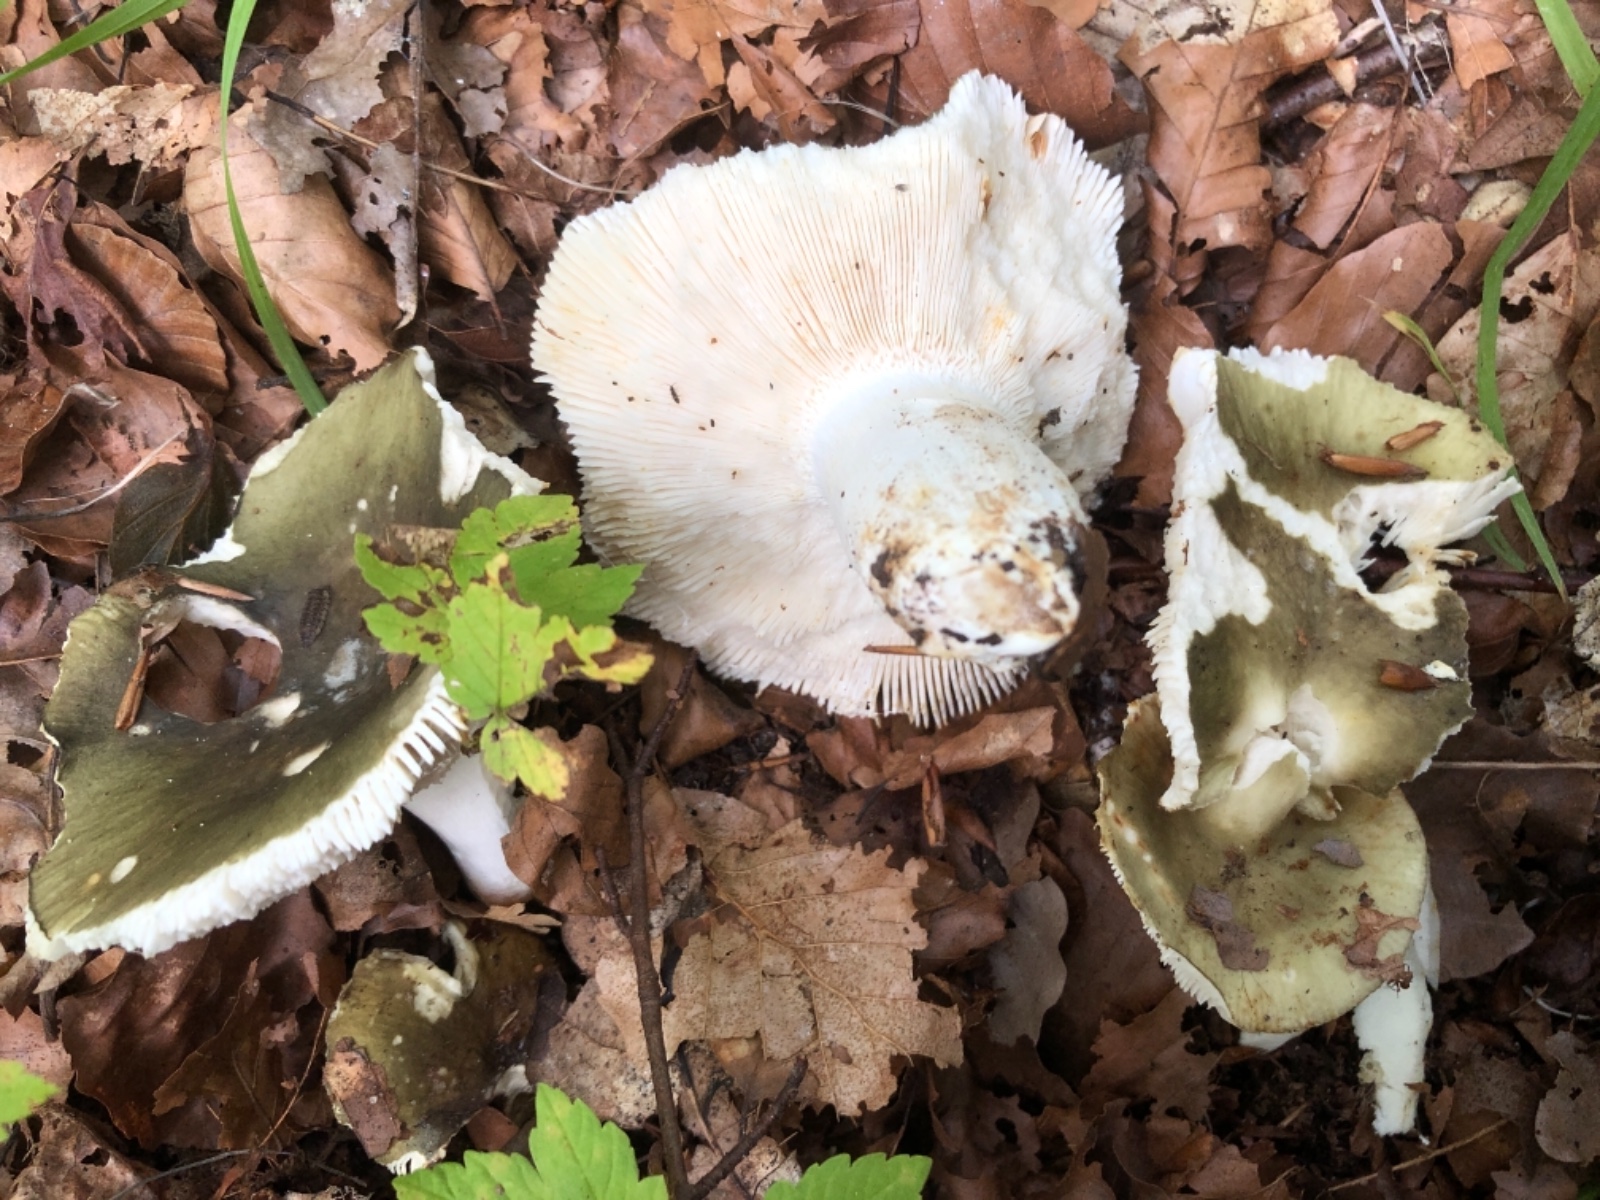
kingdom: Fungi
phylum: Basidiomycota
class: Agaricomycetes
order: Russulales
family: Russulaceae
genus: Russula
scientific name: Russula heterophylla
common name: gaffelbladet skørhat
